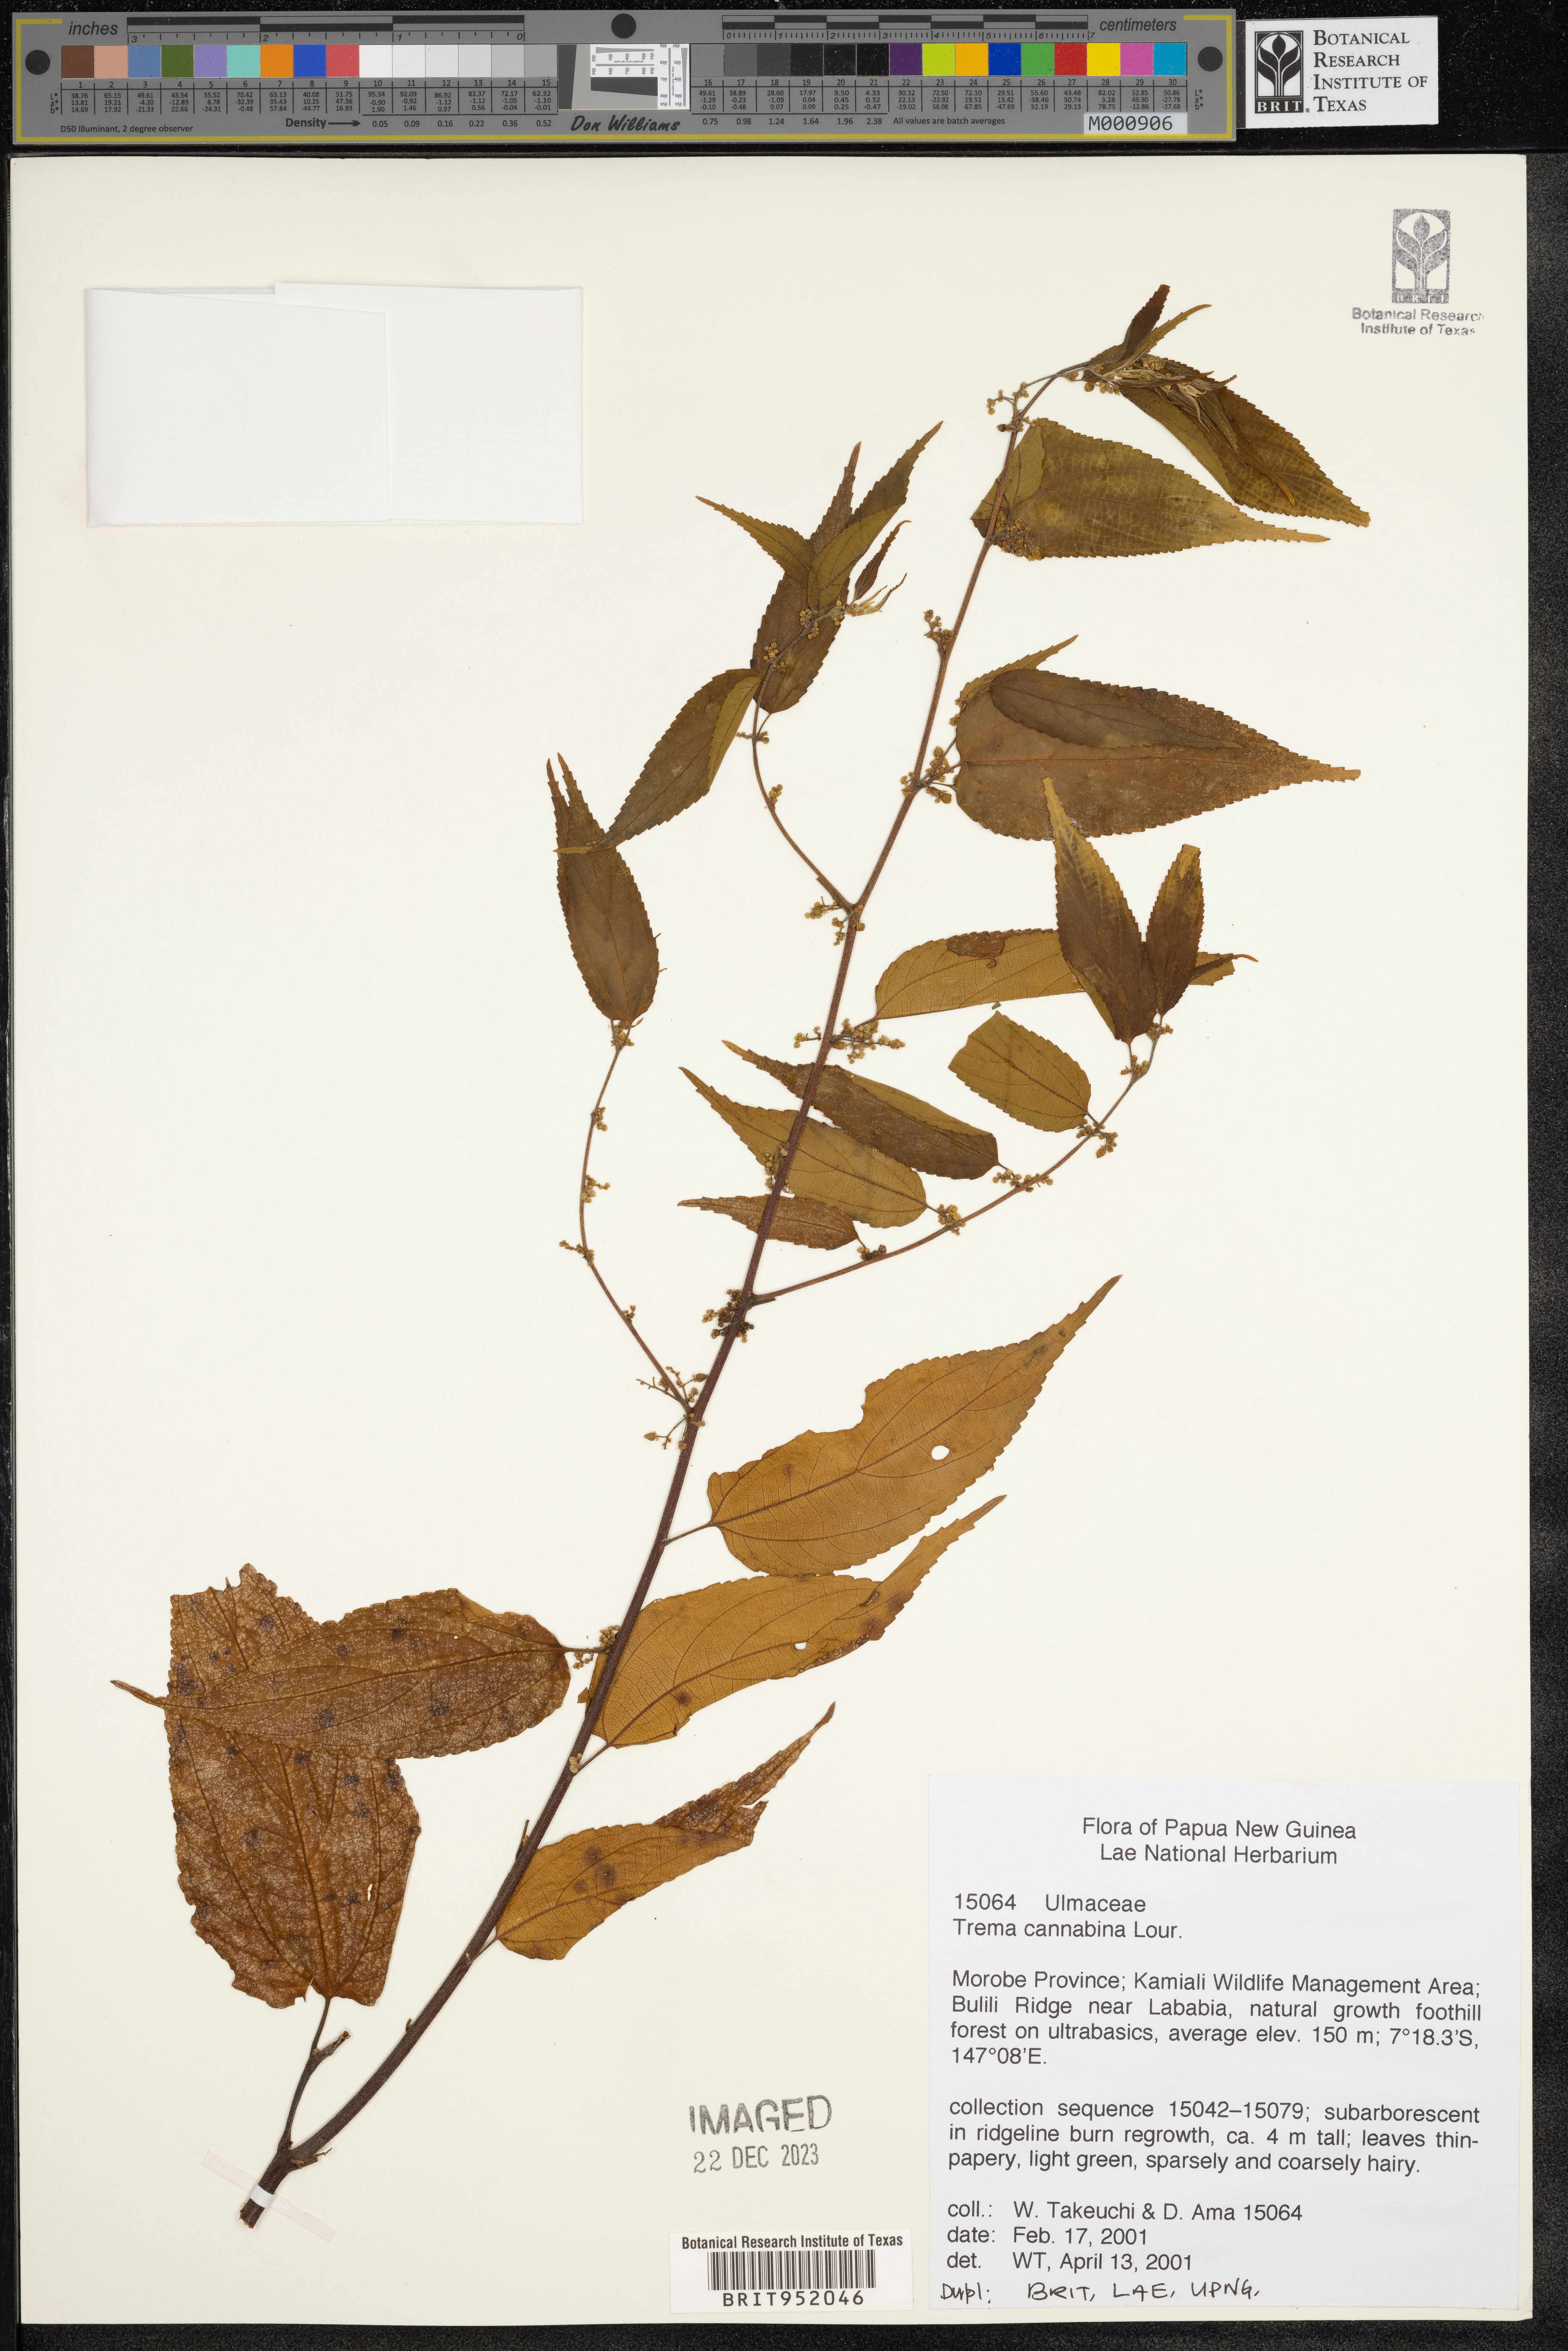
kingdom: Plantae
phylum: Tracheophyta
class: Magnoliopsida
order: Rosales
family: Cannabaceae
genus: Trema
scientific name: Trema cannabina
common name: Poison-peach
